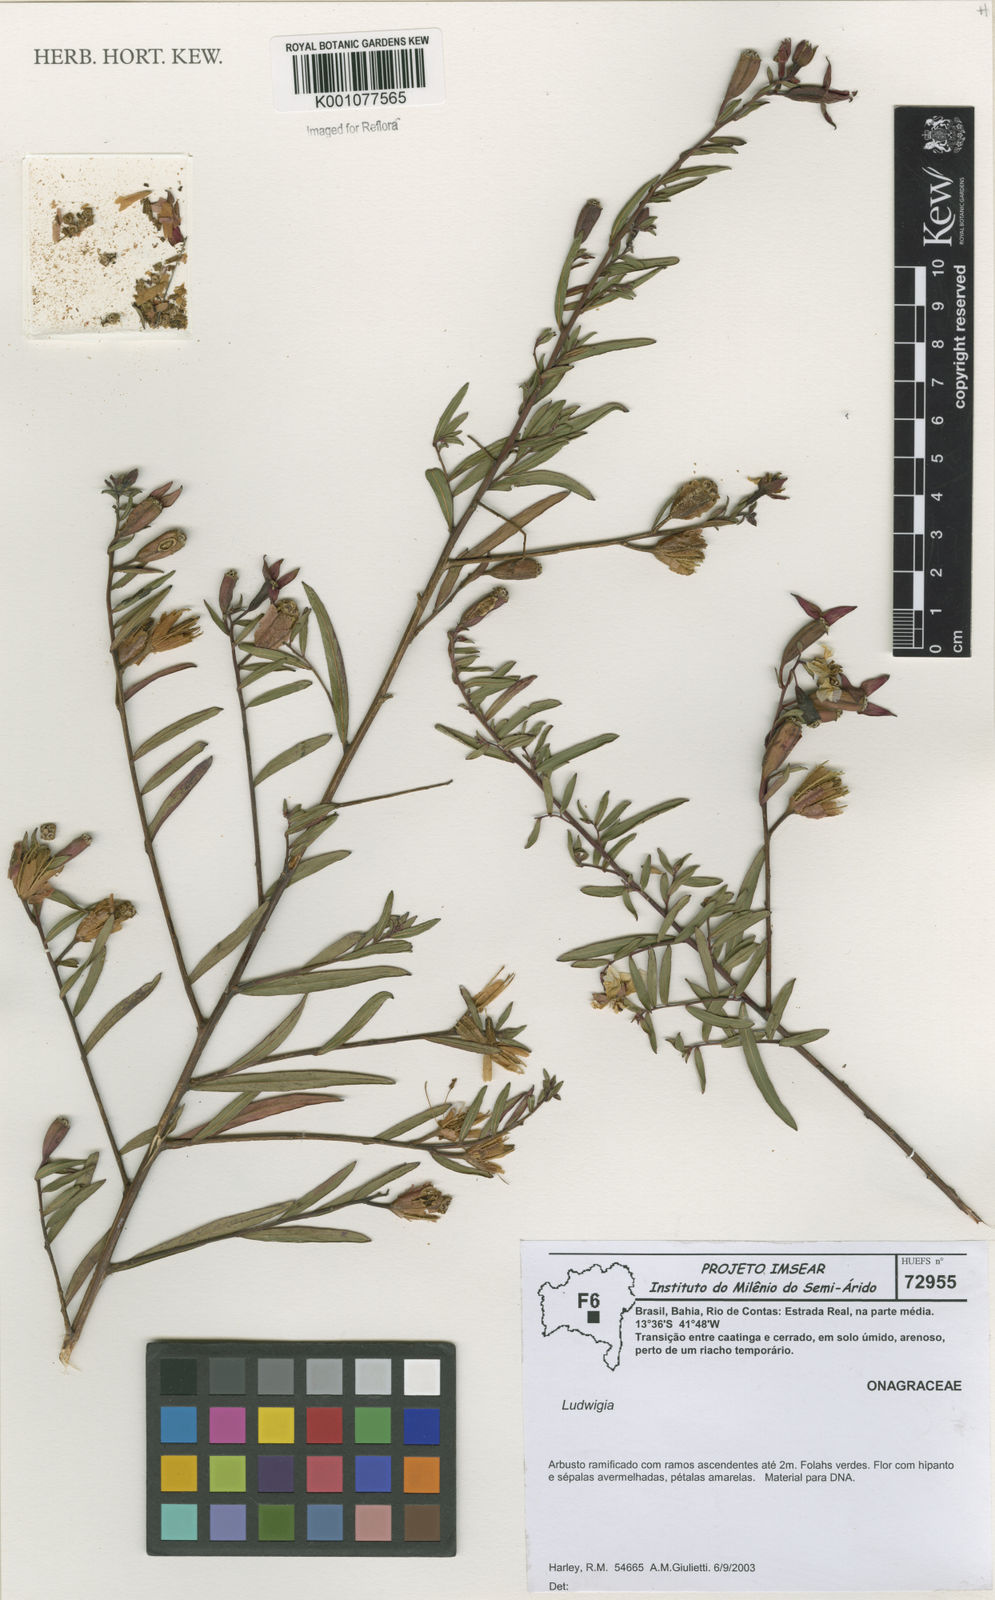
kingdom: Plantae
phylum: Tracheophyta
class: Magnoliopsida
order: Myrtales
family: Onagraceae
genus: Ludwigia
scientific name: Ludwigia
